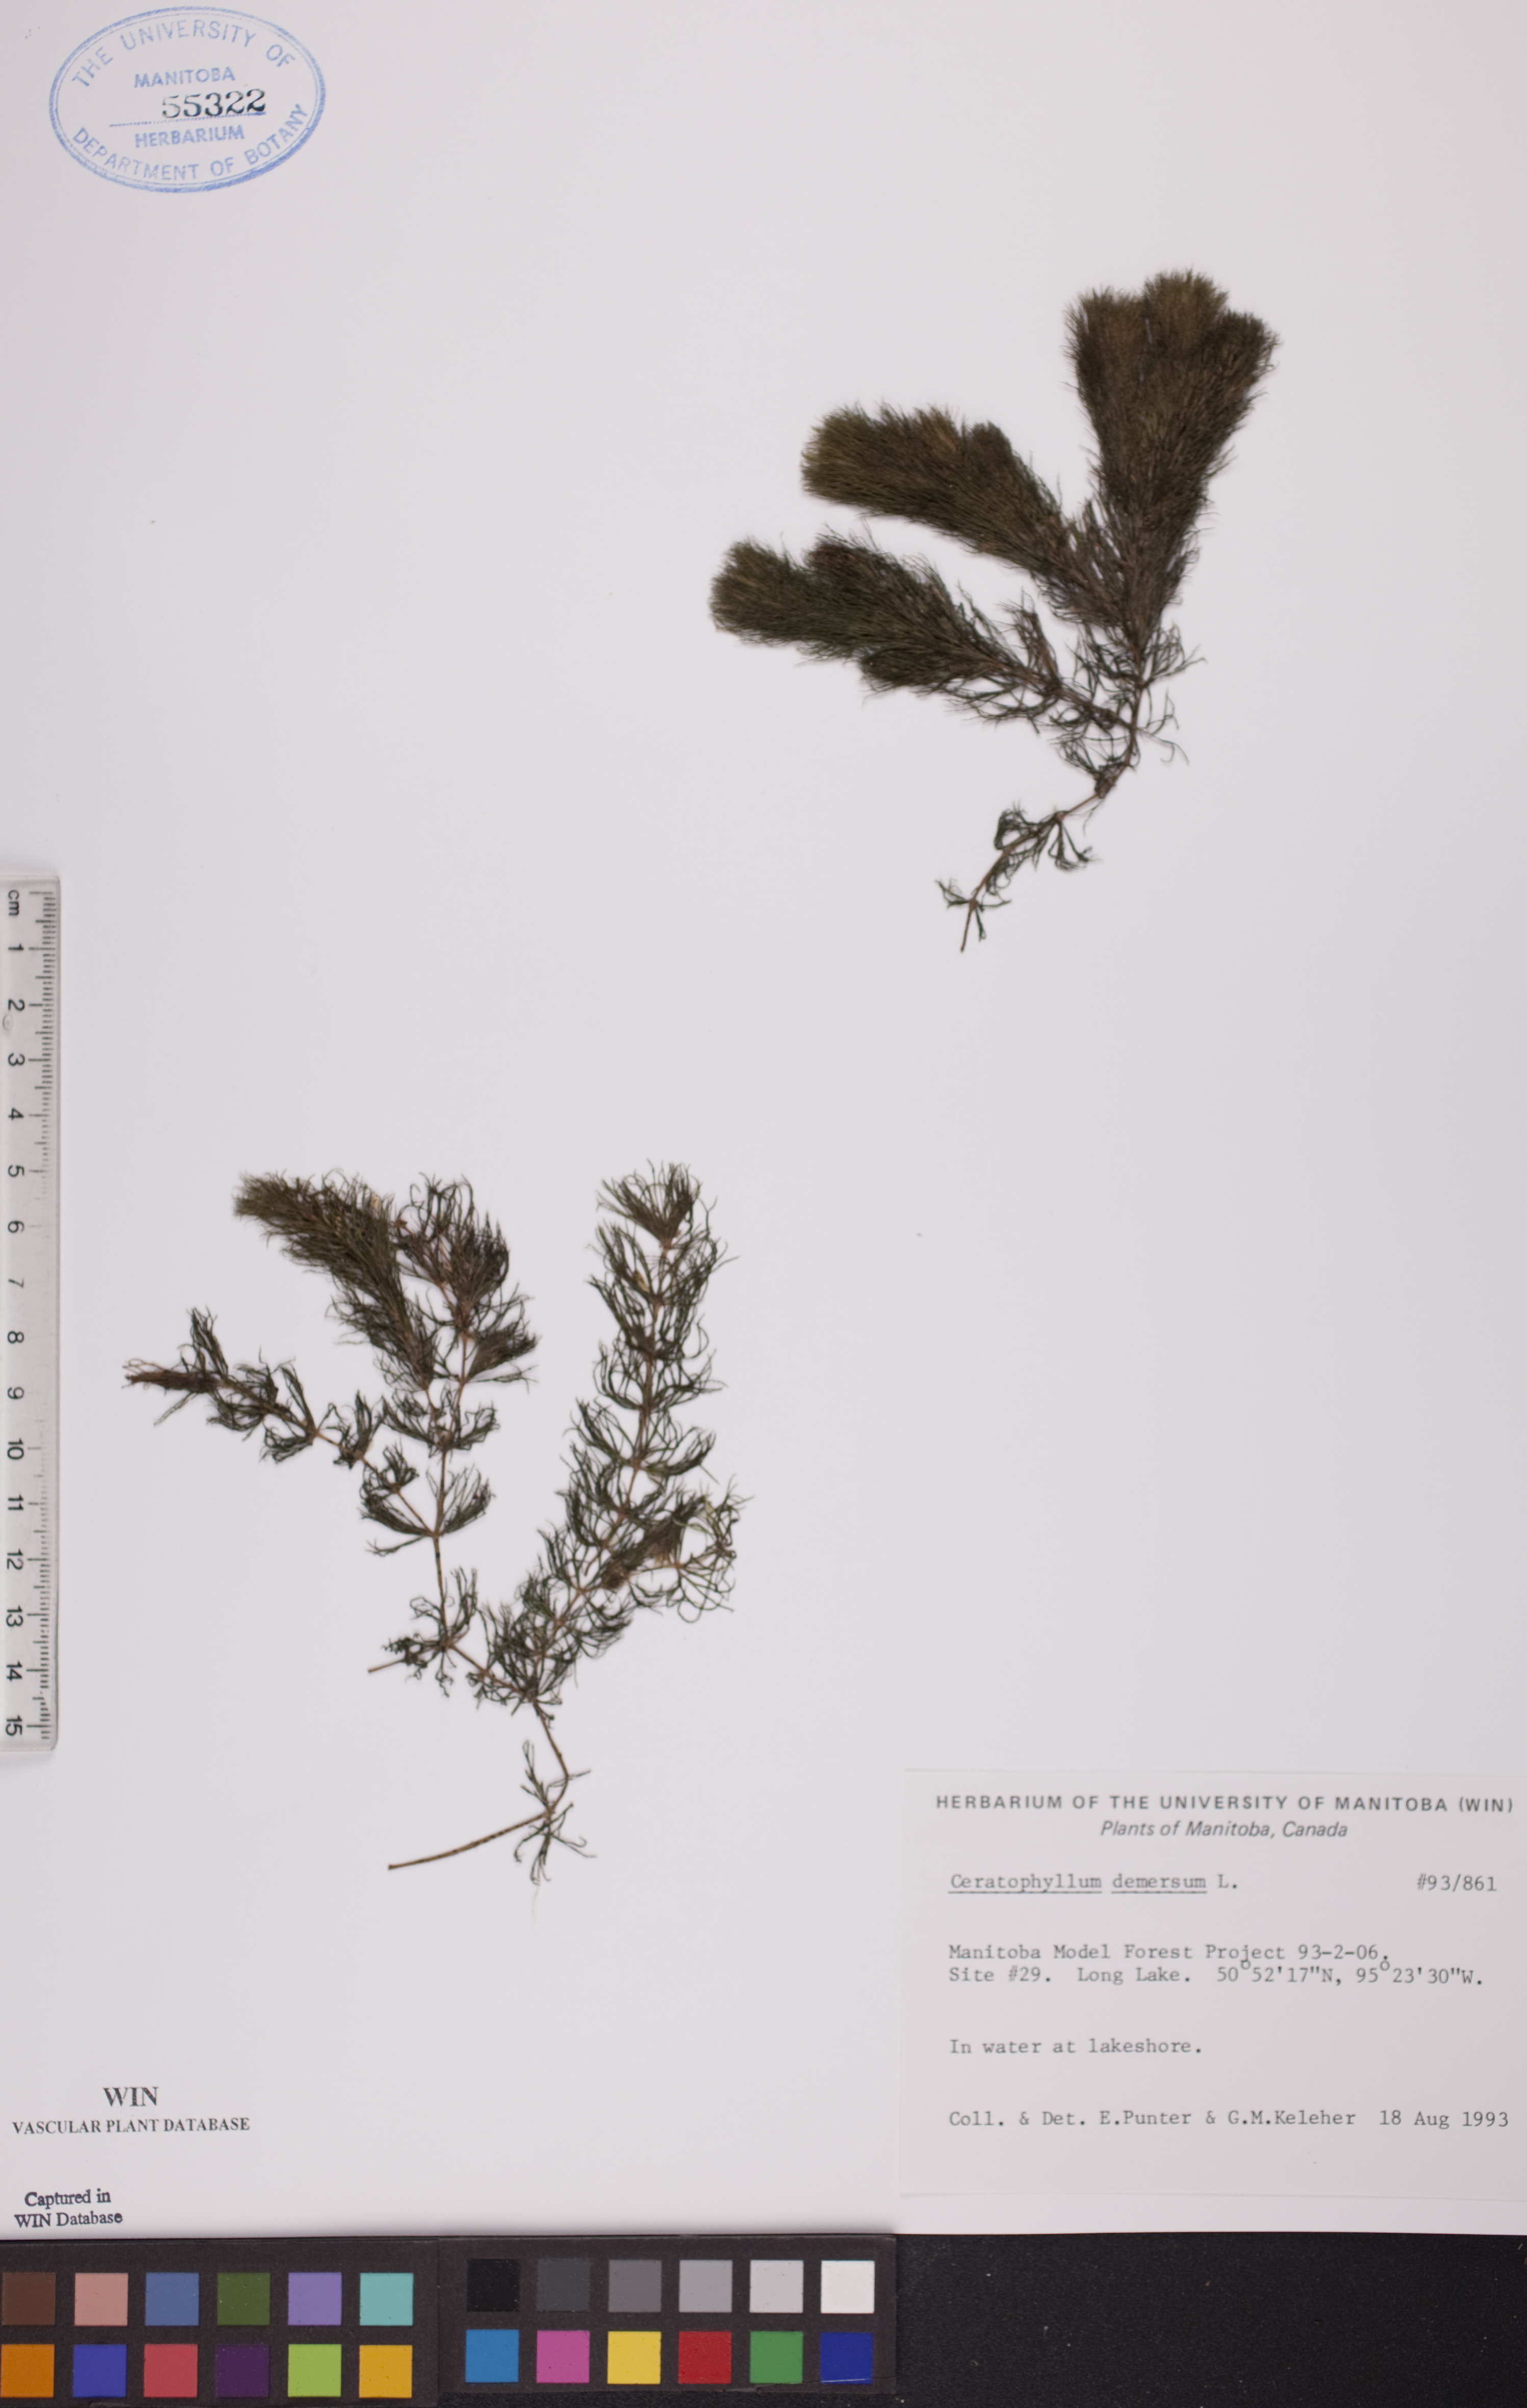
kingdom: Plantae
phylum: Tracheophyta
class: Magnoliopsida
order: Ceratophyllales
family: Ceratophyllaceae
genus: Ceratophyllum
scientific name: Ceratophyllum demersum
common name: Rigid hornwort
